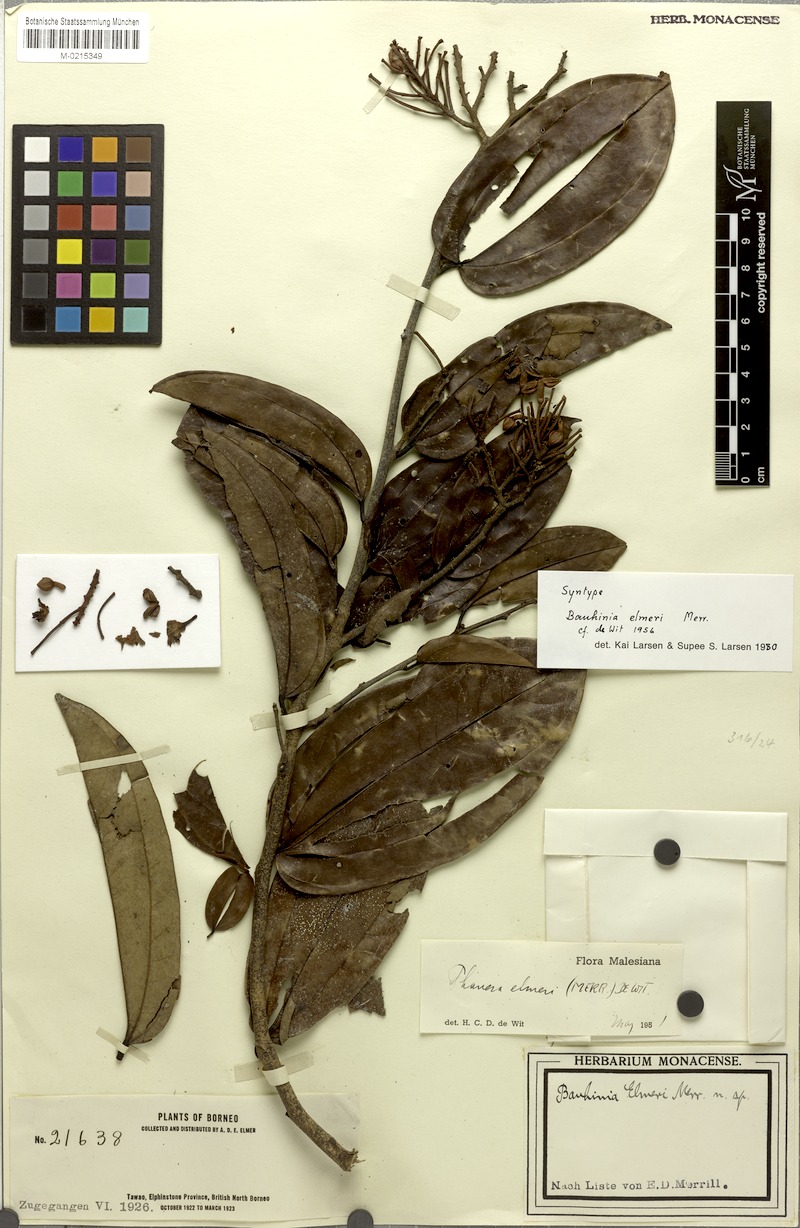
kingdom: Plantae
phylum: Tracheophyta
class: Magnoliopsida
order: Fabales
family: Fabaceae
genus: Phanera
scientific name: Phanera elmeri
